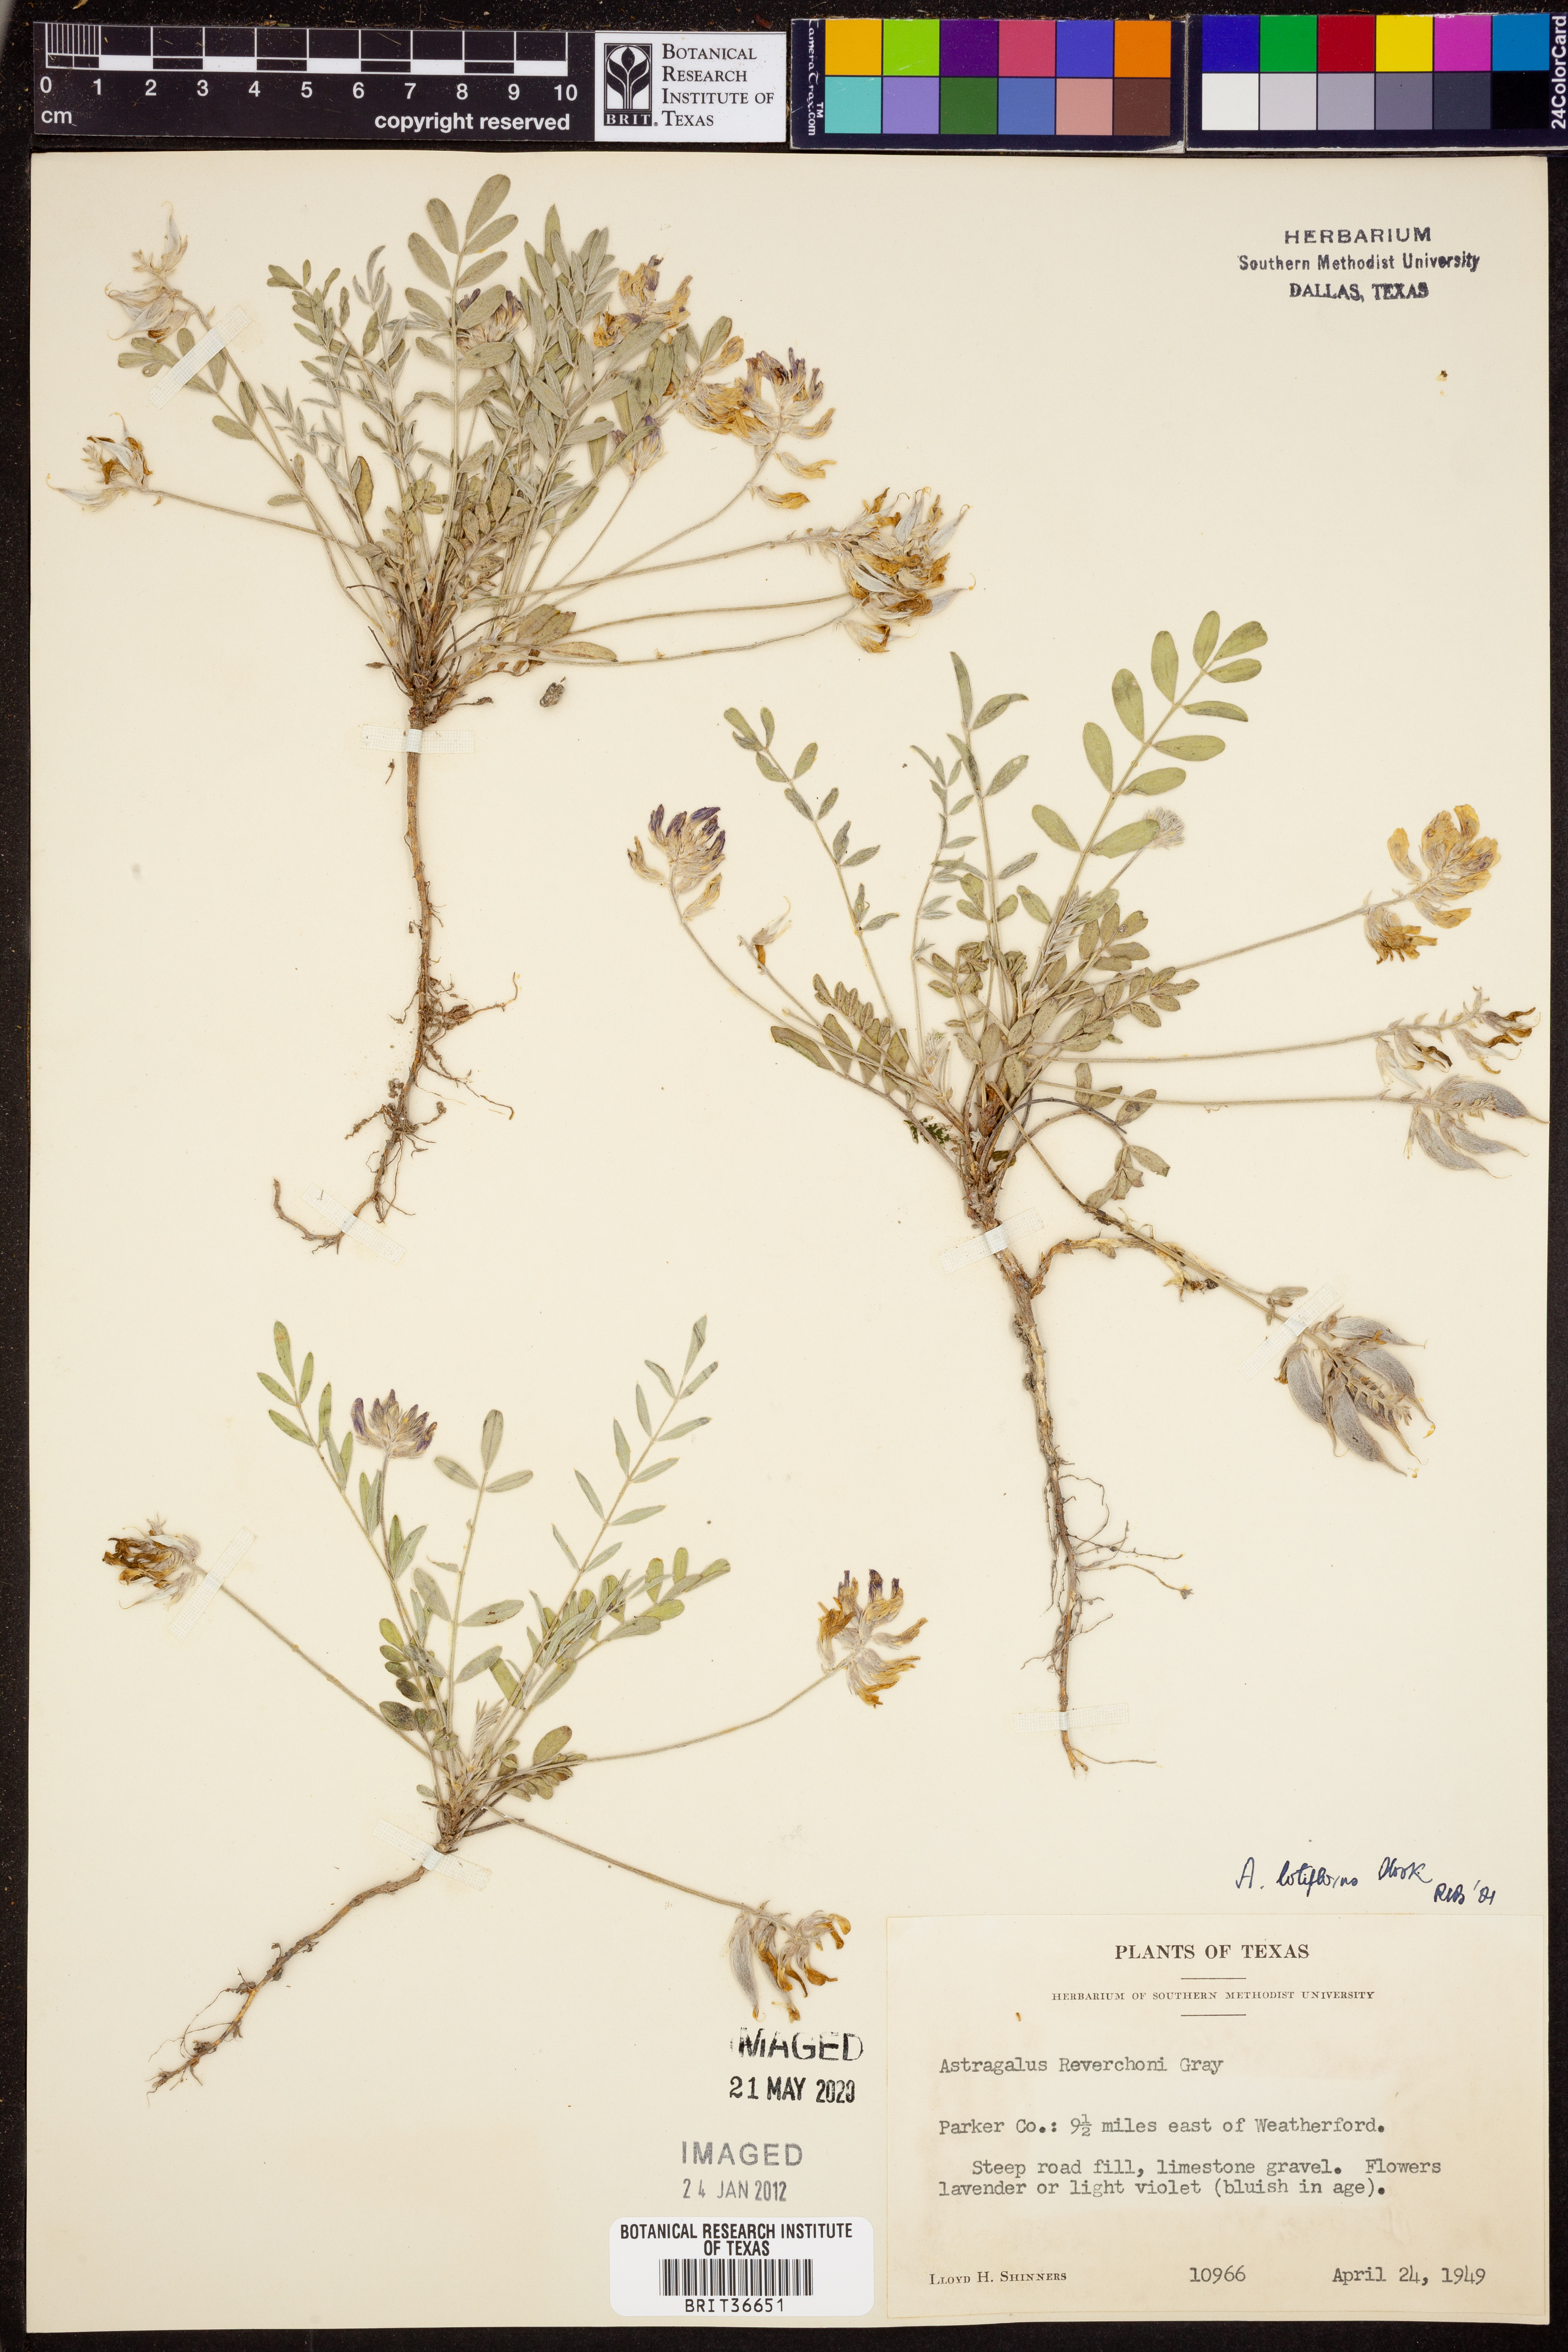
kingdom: Plantae
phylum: Tracheophyta
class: Magnoliopsida
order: Fabales
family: Fabaceae
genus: Astragalus
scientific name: Astragalus lotiflorus
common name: Lotus milk-vetch
